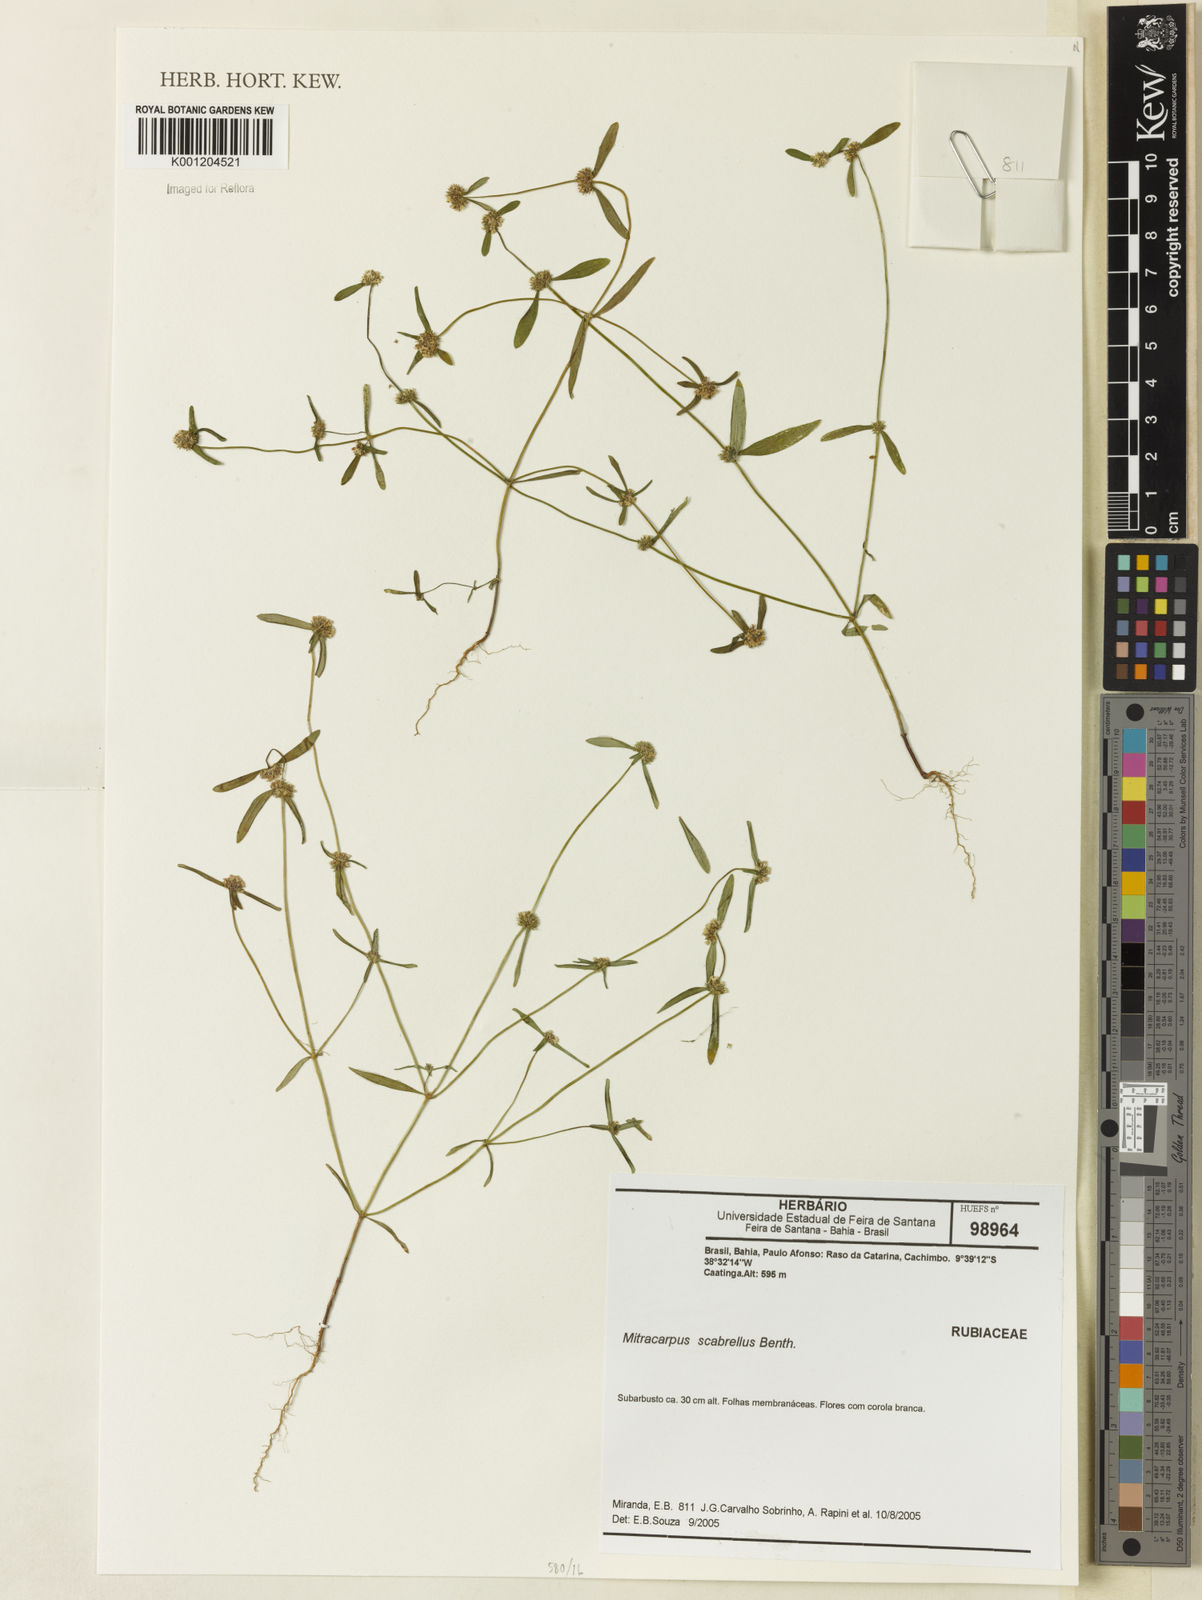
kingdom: Plantae
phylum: Tracheophyta
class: Magnoliopsida
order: Gentianales
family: Rubiaceae
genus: Mitracarpus
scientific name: Mitracarpus salzmannianus
